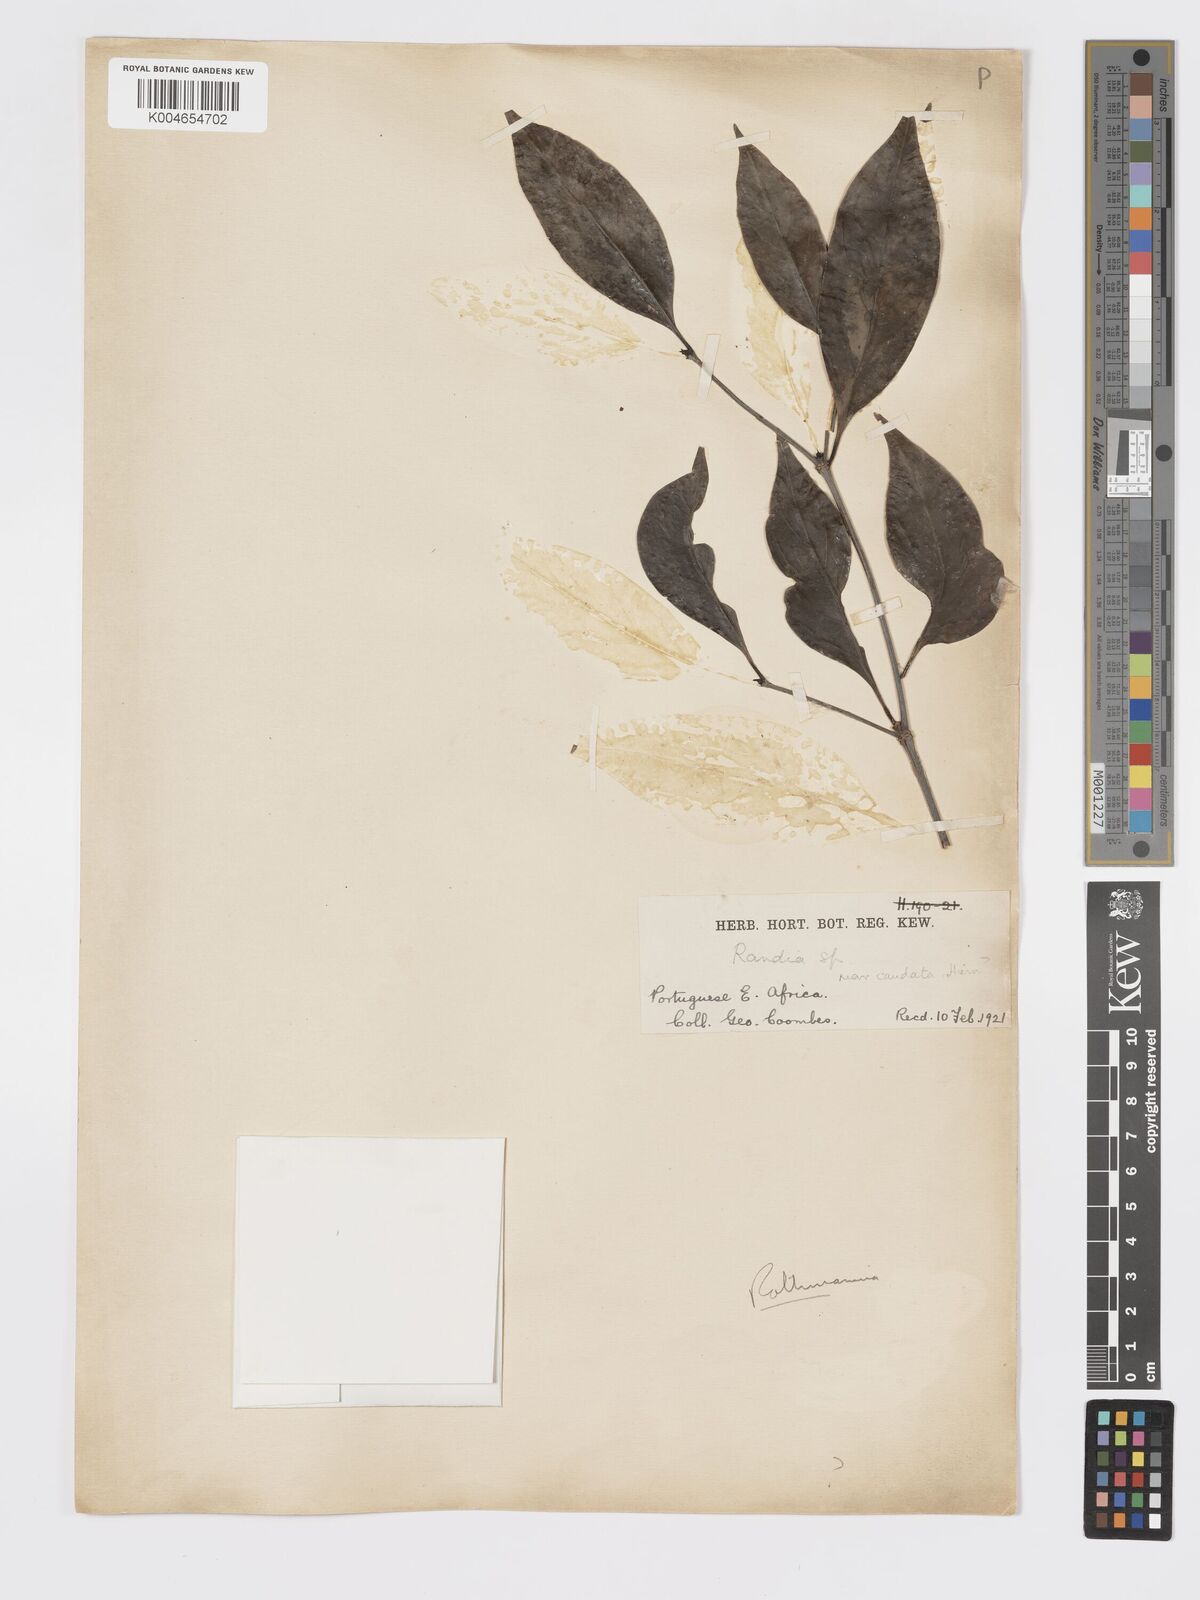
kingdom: Plantae
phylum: Tracheophyta
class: Magnoliopsida
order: Gentianales
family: Rubiaceae
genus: Rothmannia
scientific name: Rothmannia fischeri
